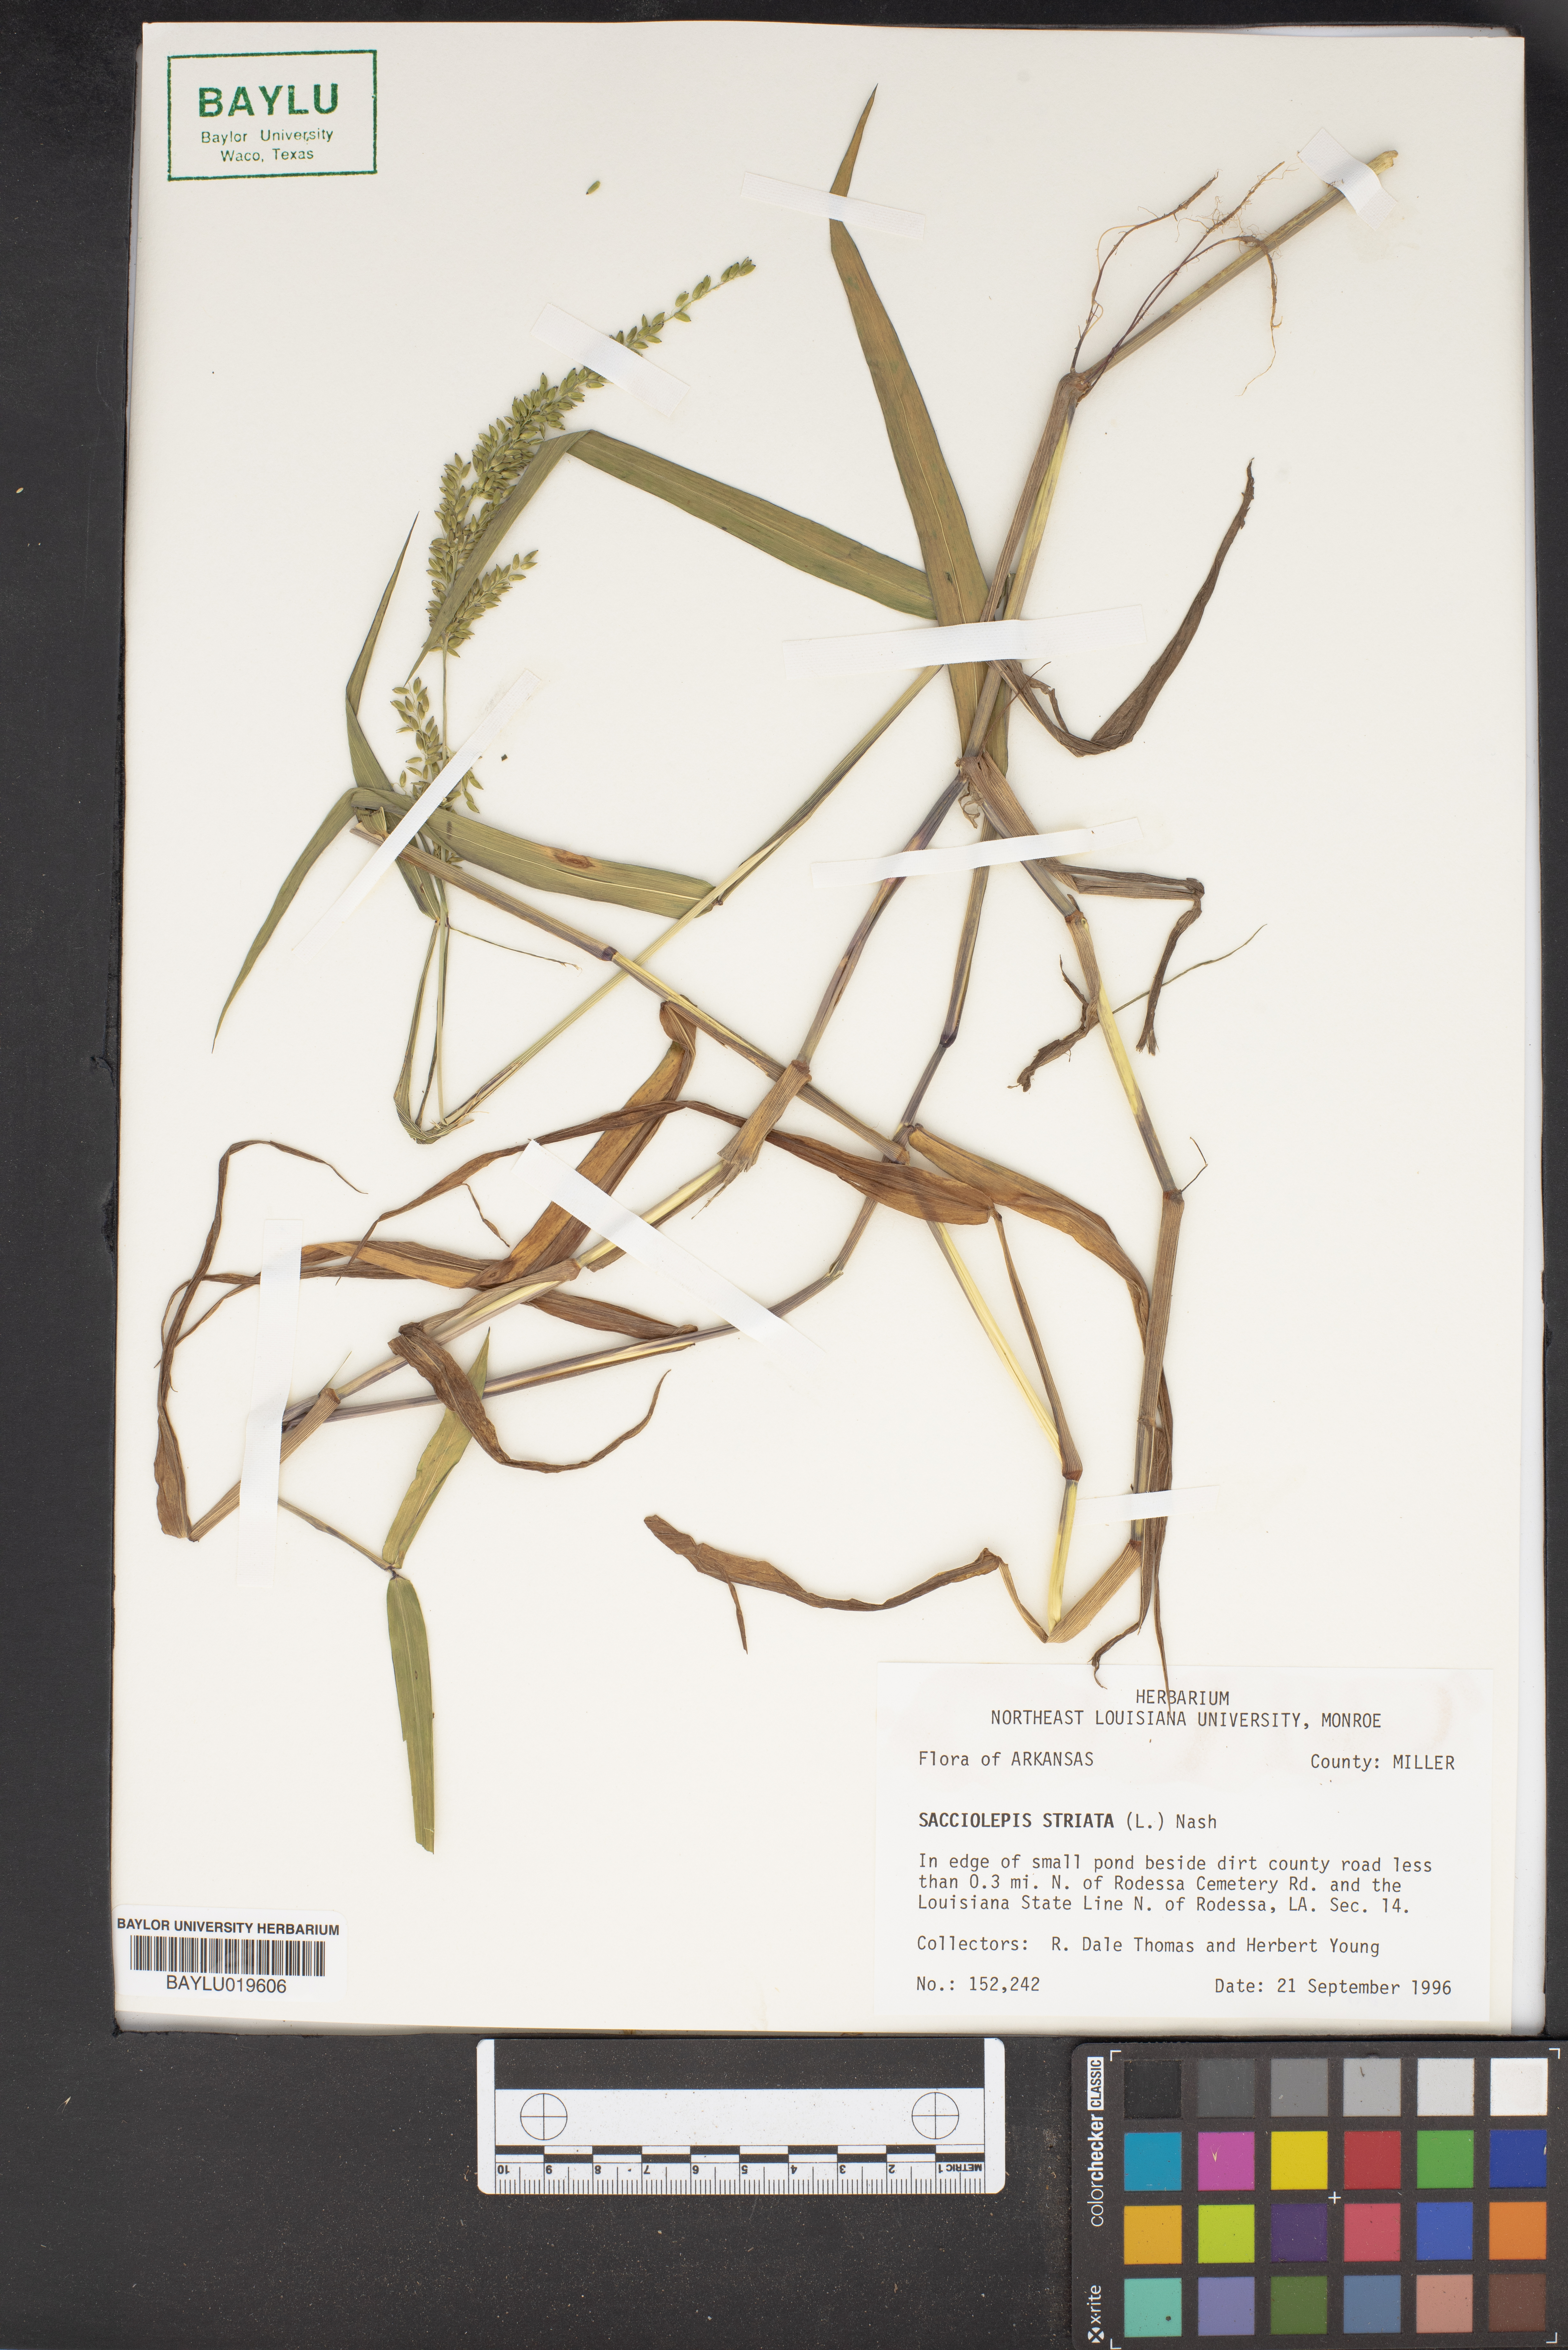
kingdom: Plantae
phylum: Tracheophyta
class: Liliopsida
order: Poales
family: Poaceae
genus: Sacciolepis
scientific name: Sacciolepis striata
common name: American cupscale
